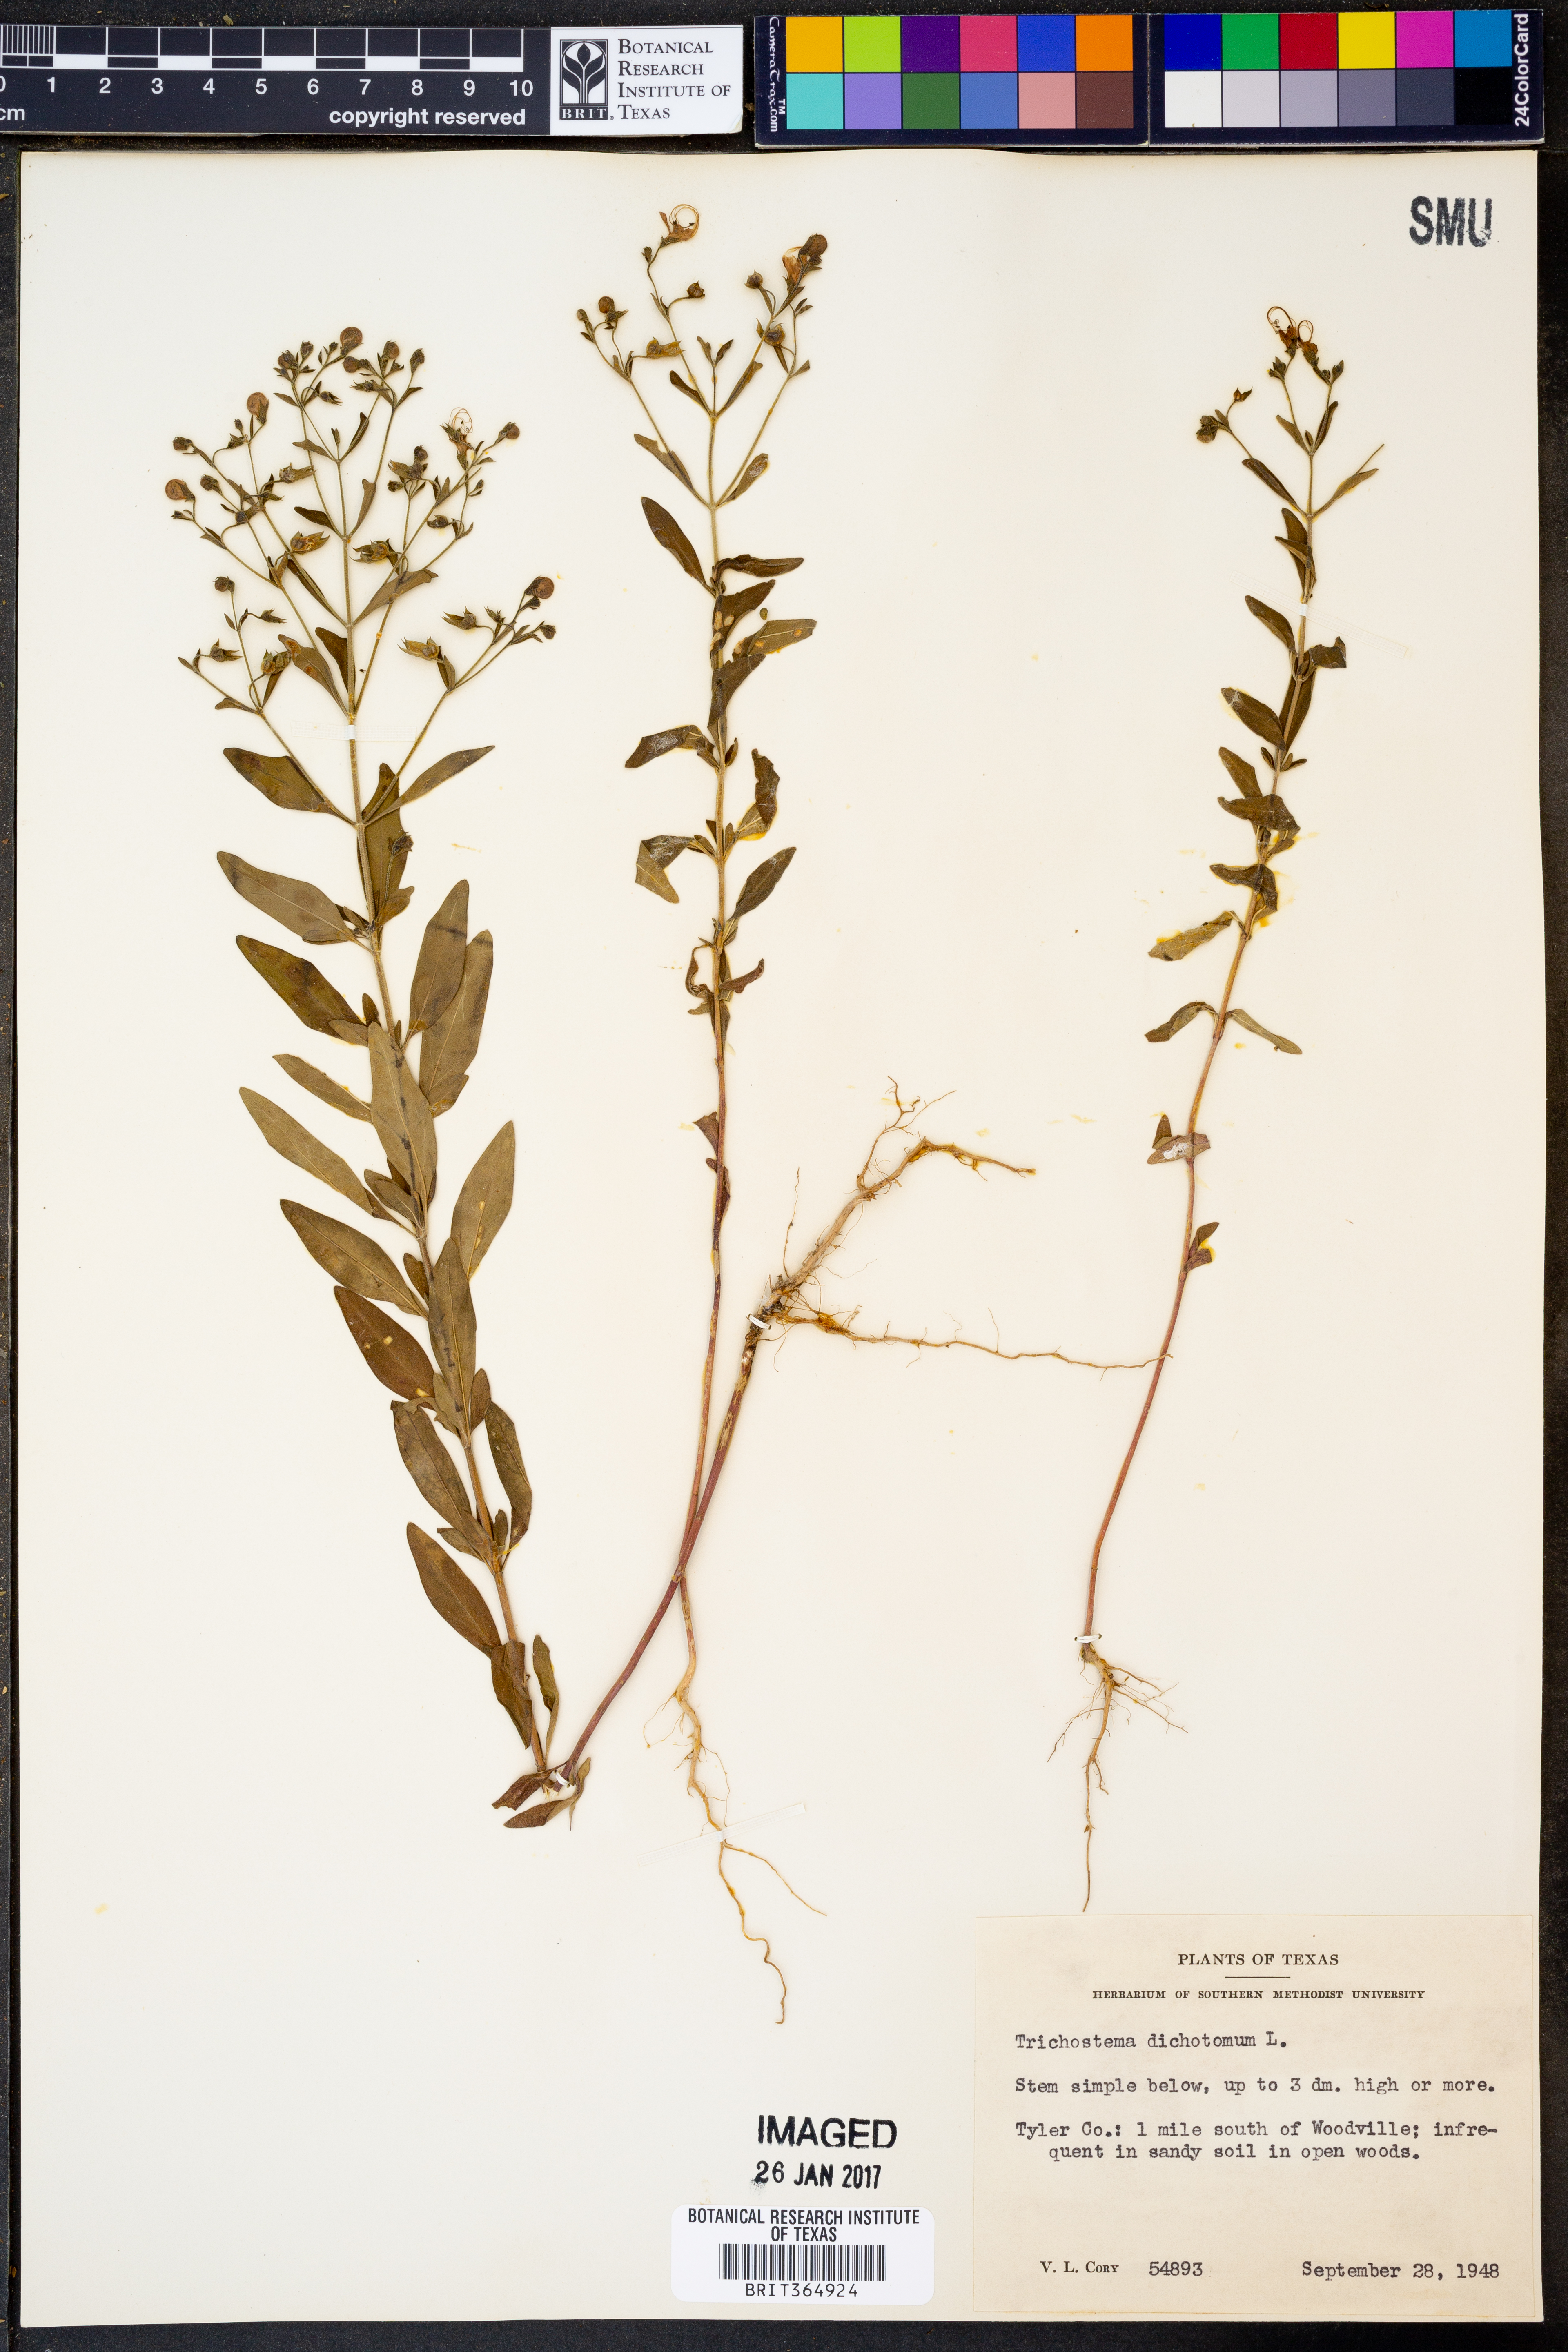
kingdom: Plantae
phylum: Tracheophyta
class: Magnoliopsida
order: Lamiales
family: Lamiaceae
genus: Trichostema
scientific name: Trichostema dichotomum
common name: Bastard pennyroyal
